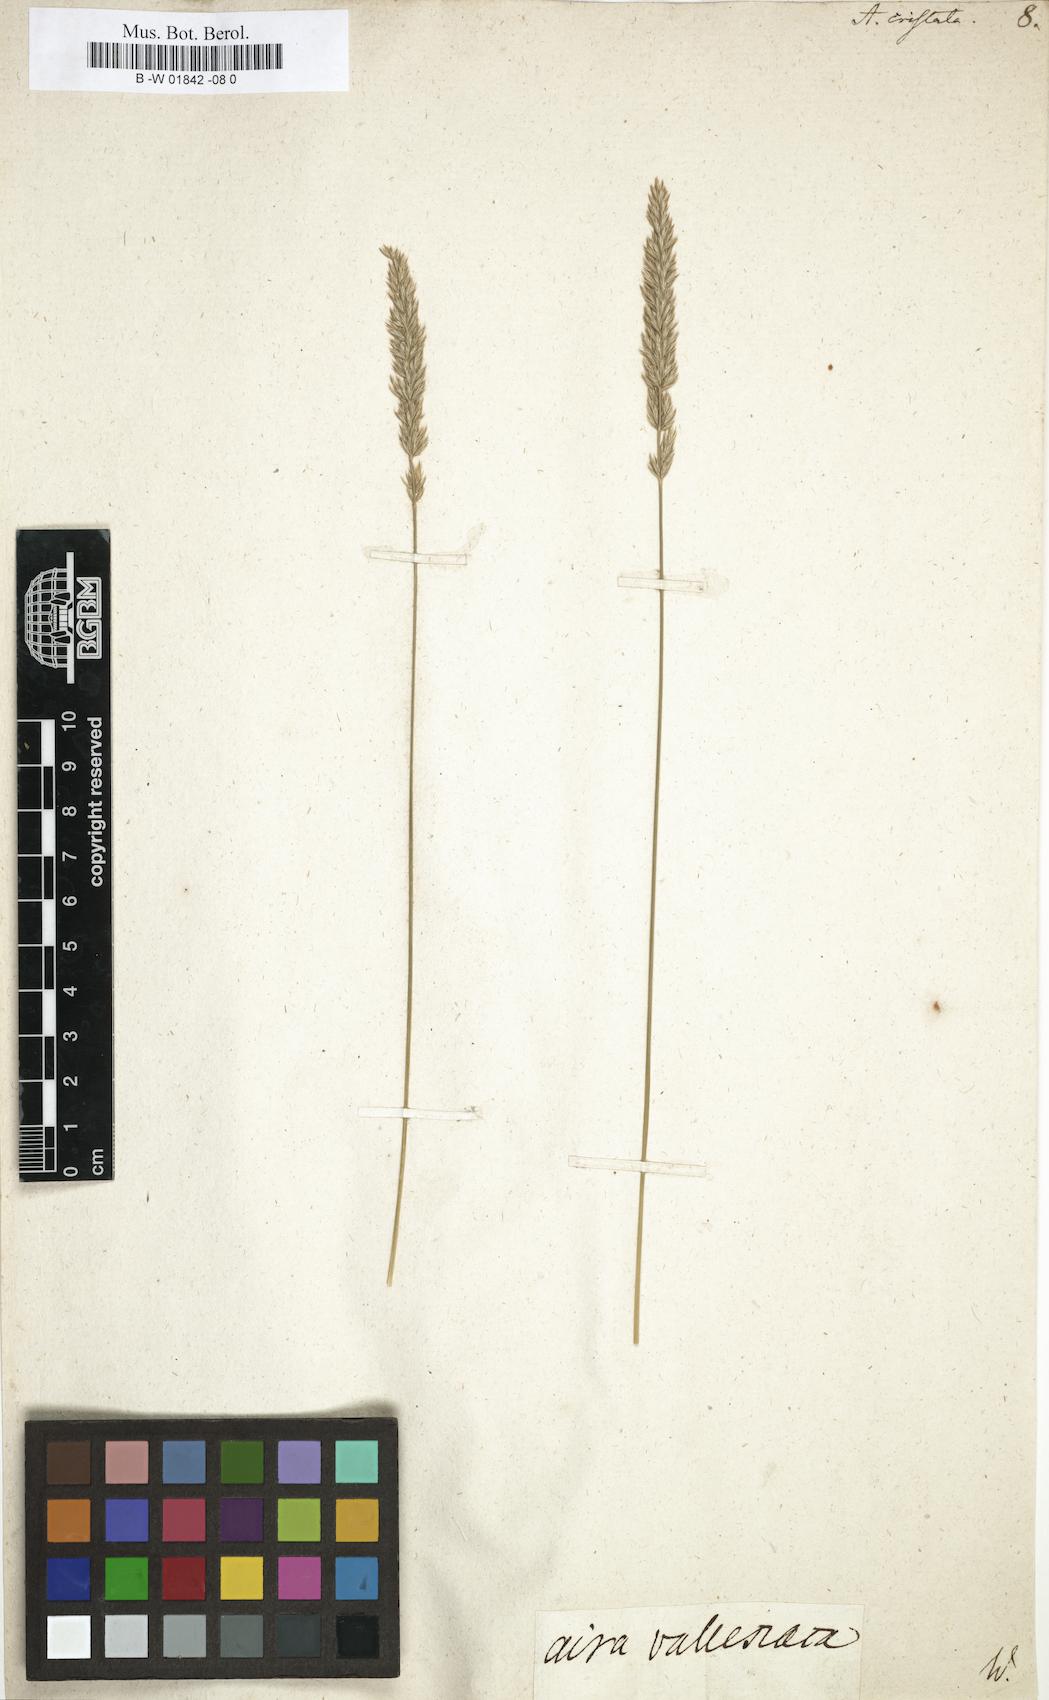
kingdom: Plantae
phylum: Tracheophyta
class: Liliopsida
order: Poales
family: Poaceae
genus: Koeleria
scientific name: Koeleria macrantha
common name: Crested hair-grass
